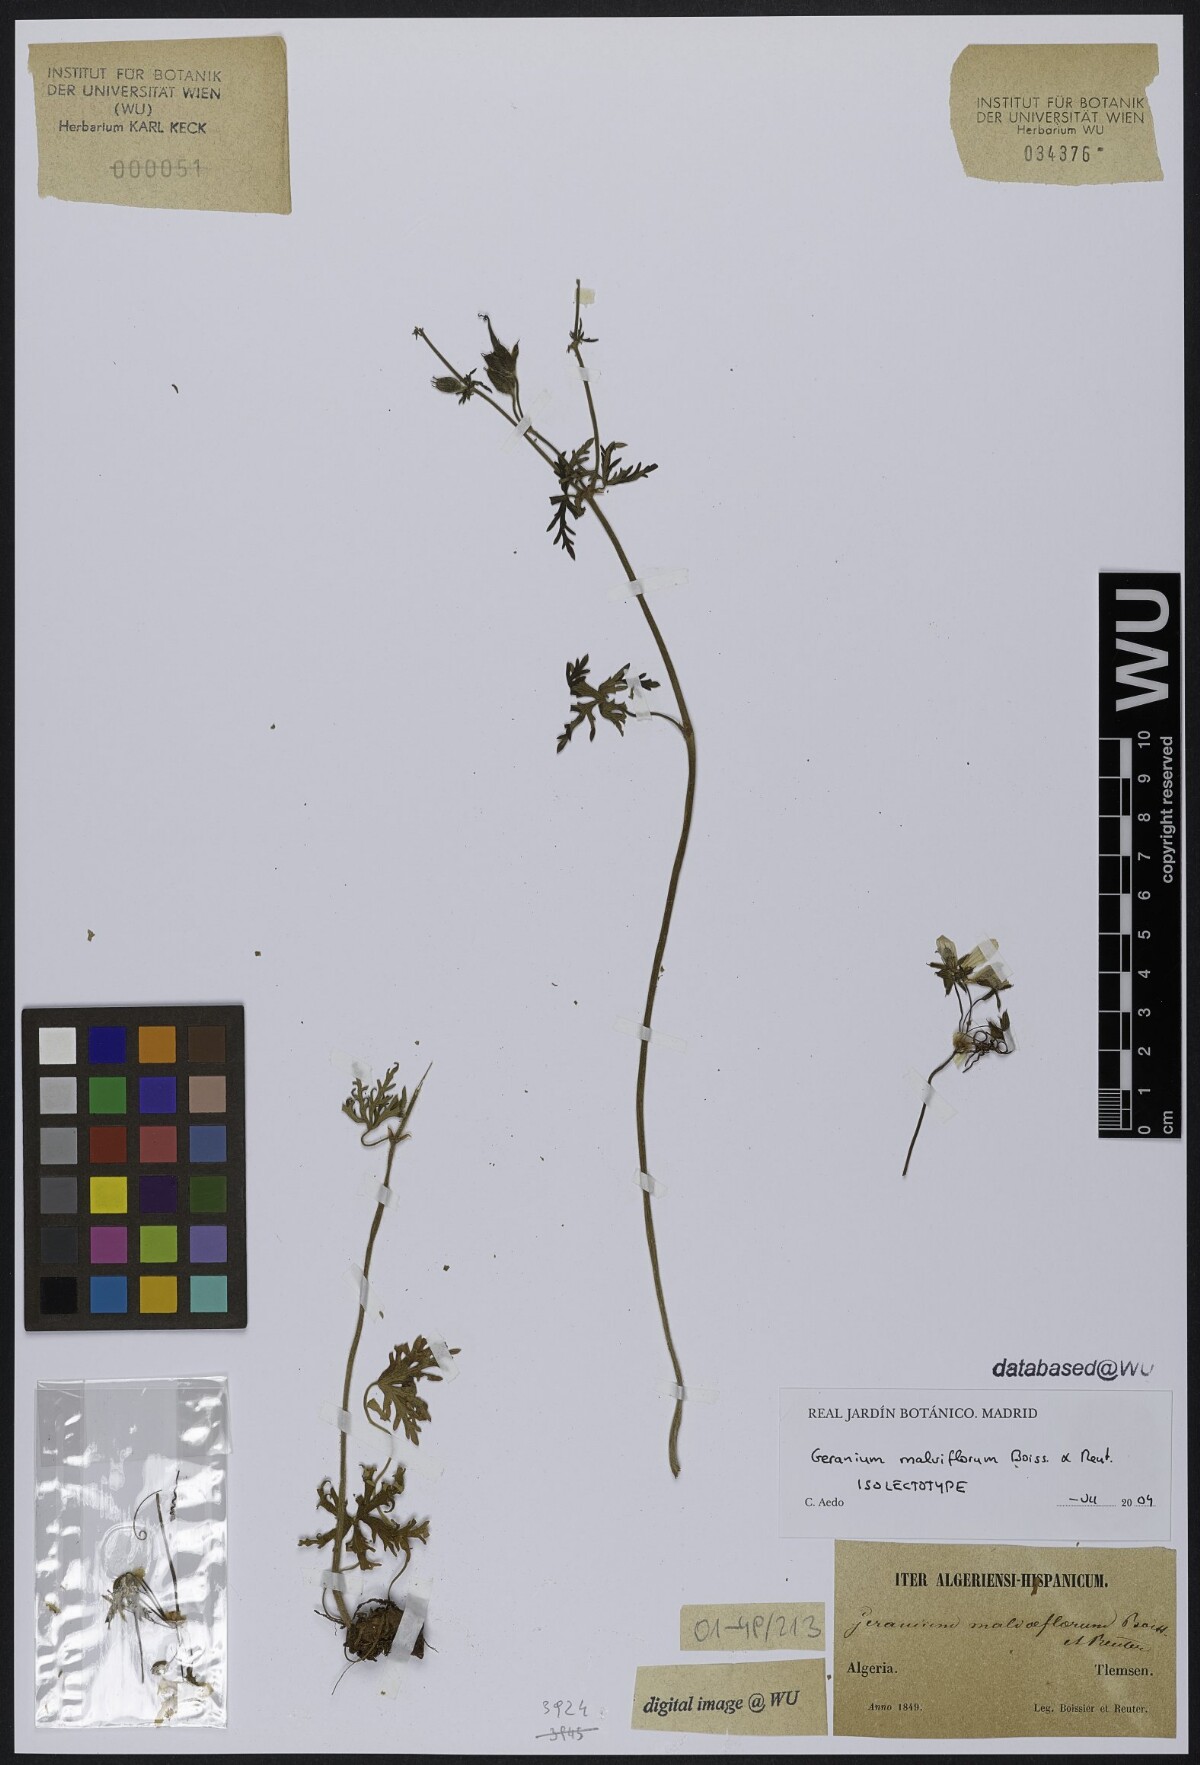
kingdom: Plantae
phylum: Tracheophyta
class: Magnoliopsida
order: Geraniales
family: Geraniaceae
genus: Geranium
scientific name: Geranium malviflorum
